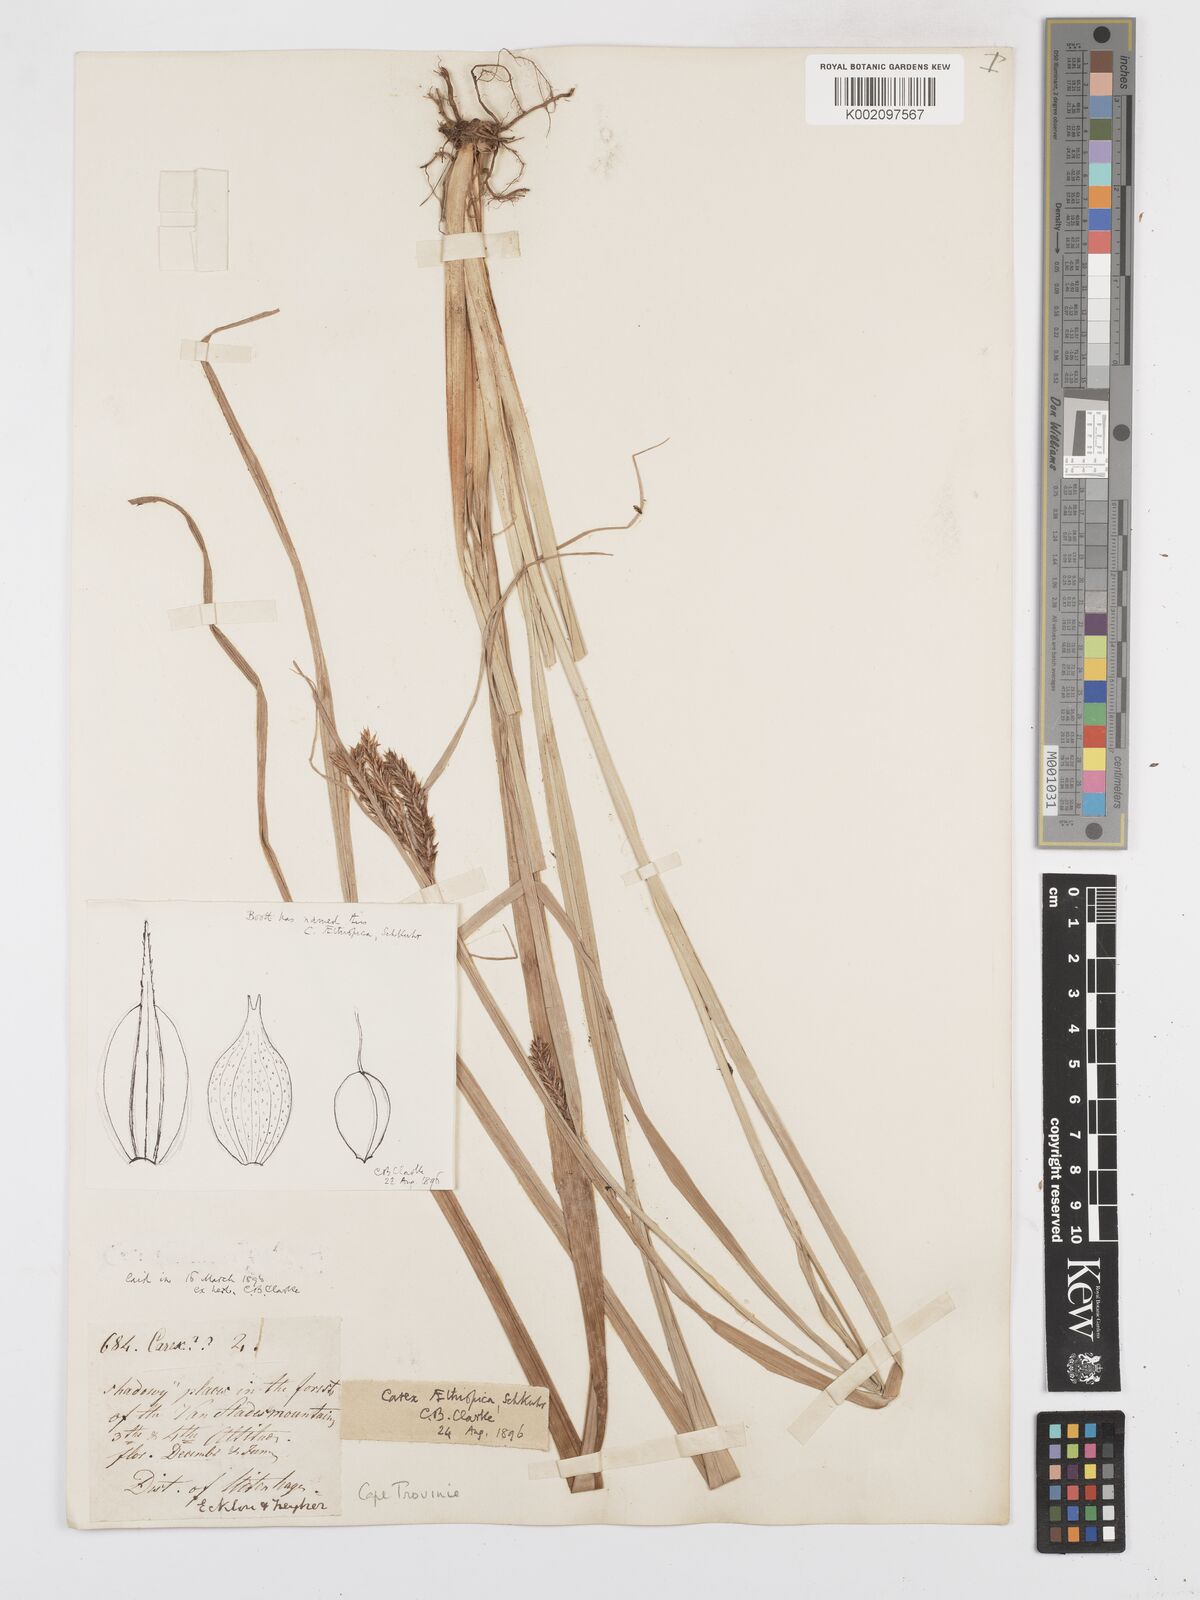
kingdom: Plantae
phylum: Tracheophyta
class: Liliopsida
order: Poales
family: Cyperaceae
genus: Carex
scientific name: Carex aethiopica
